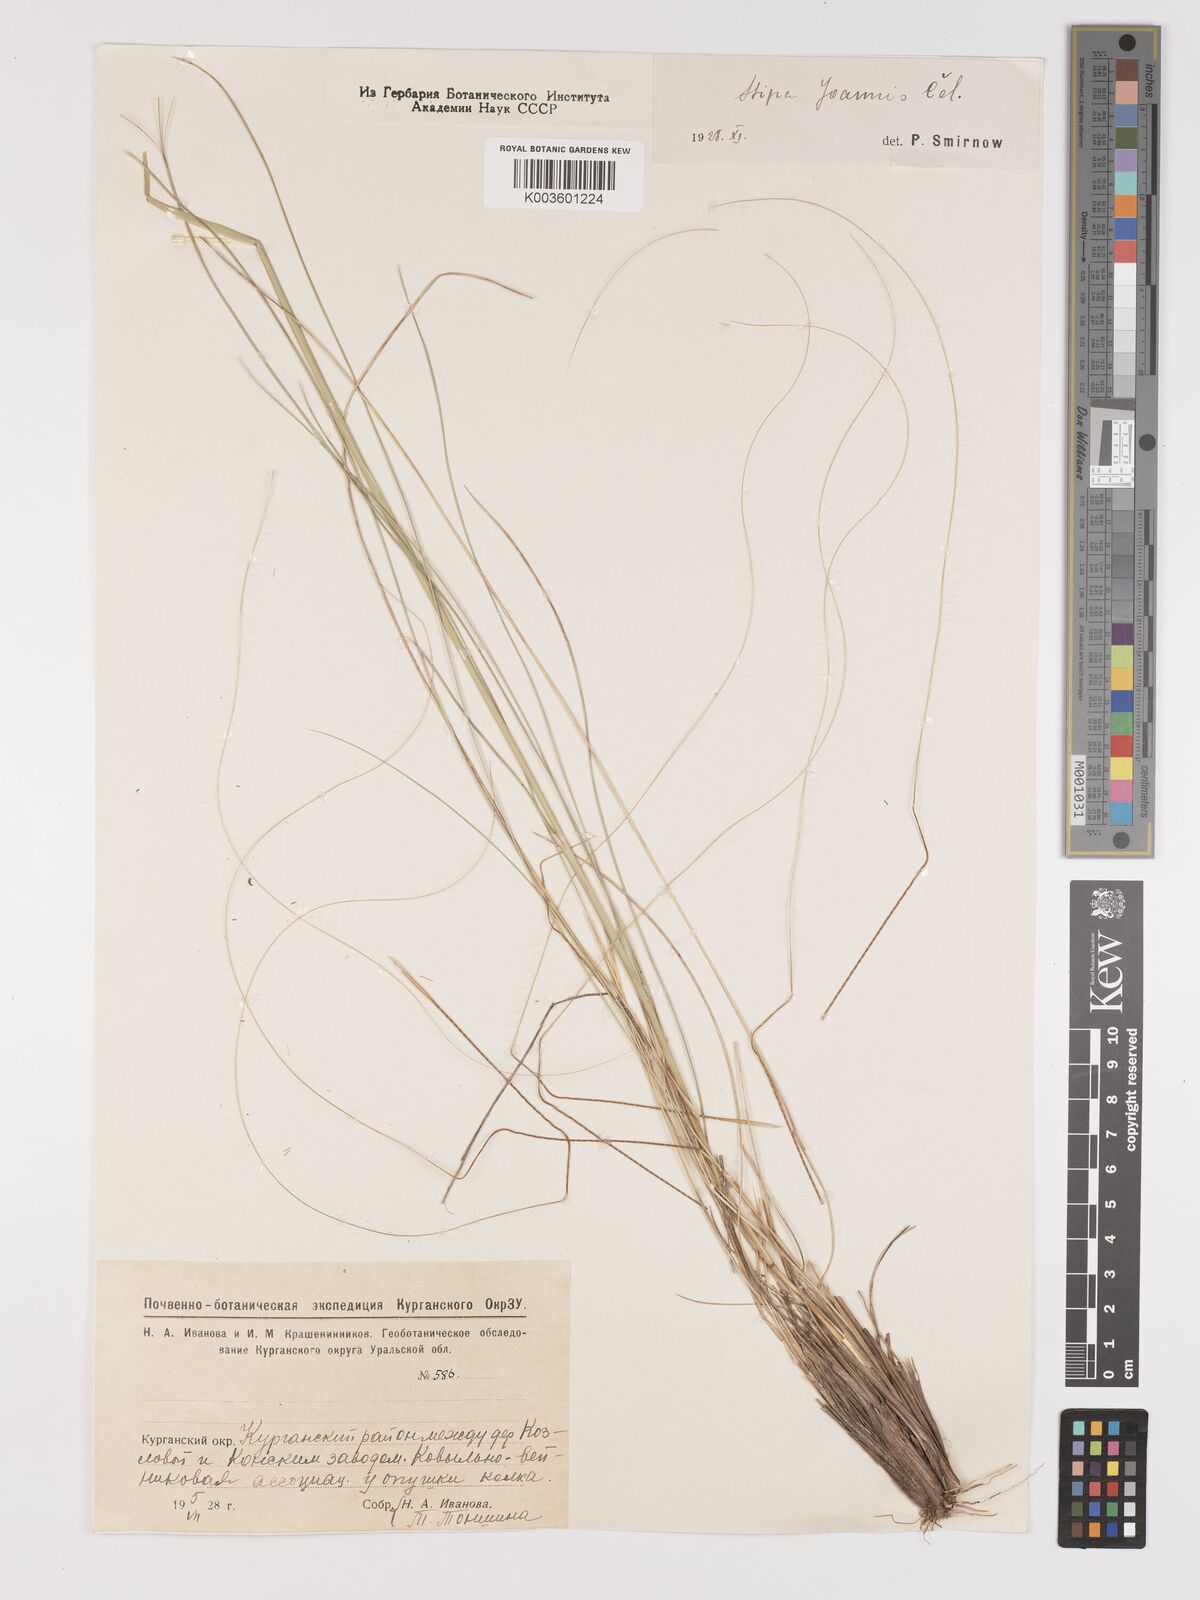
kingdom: Plantae
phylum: Tracheophyta
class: Liliopsida
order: Poales
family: Poaceae
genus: Stipa
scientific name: Stipa pennata
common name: European feather grass
